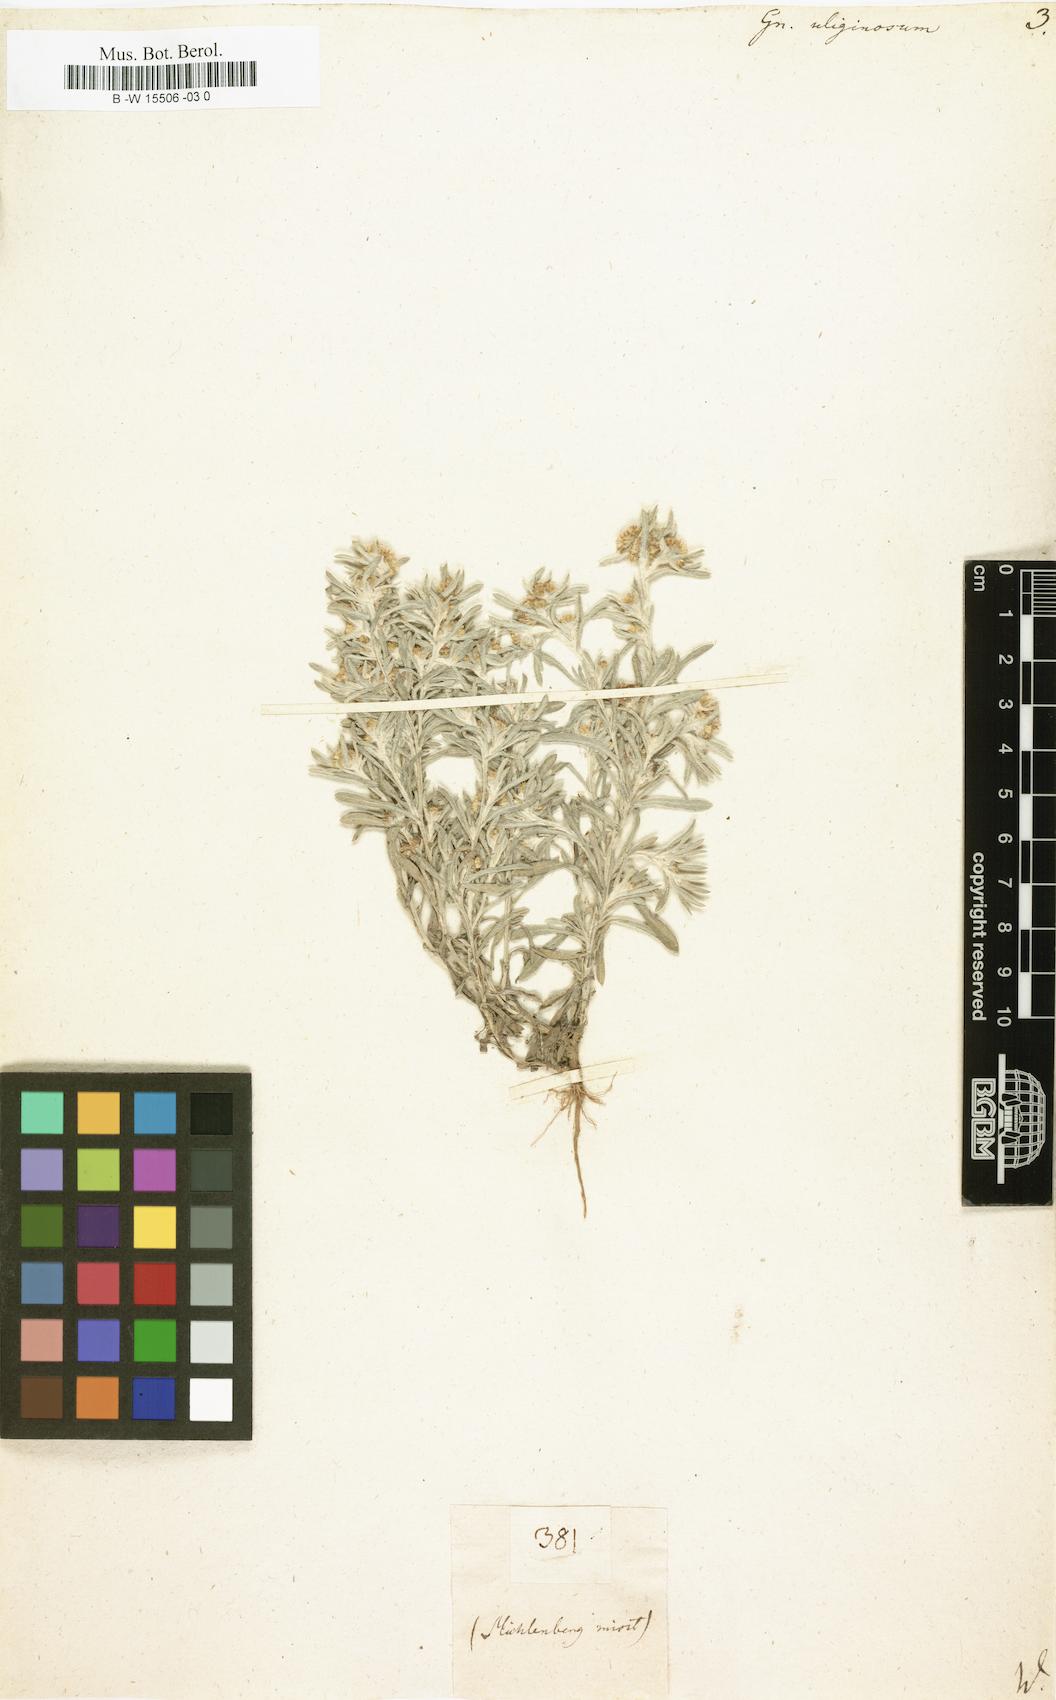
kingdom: Plantae
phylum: Tracheophyta
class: Magnoliopsida
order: Asterales
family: Asteraceae
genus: Gnaphalium
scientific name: Gnaphalium uliginosum
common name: Marsh cudweed
